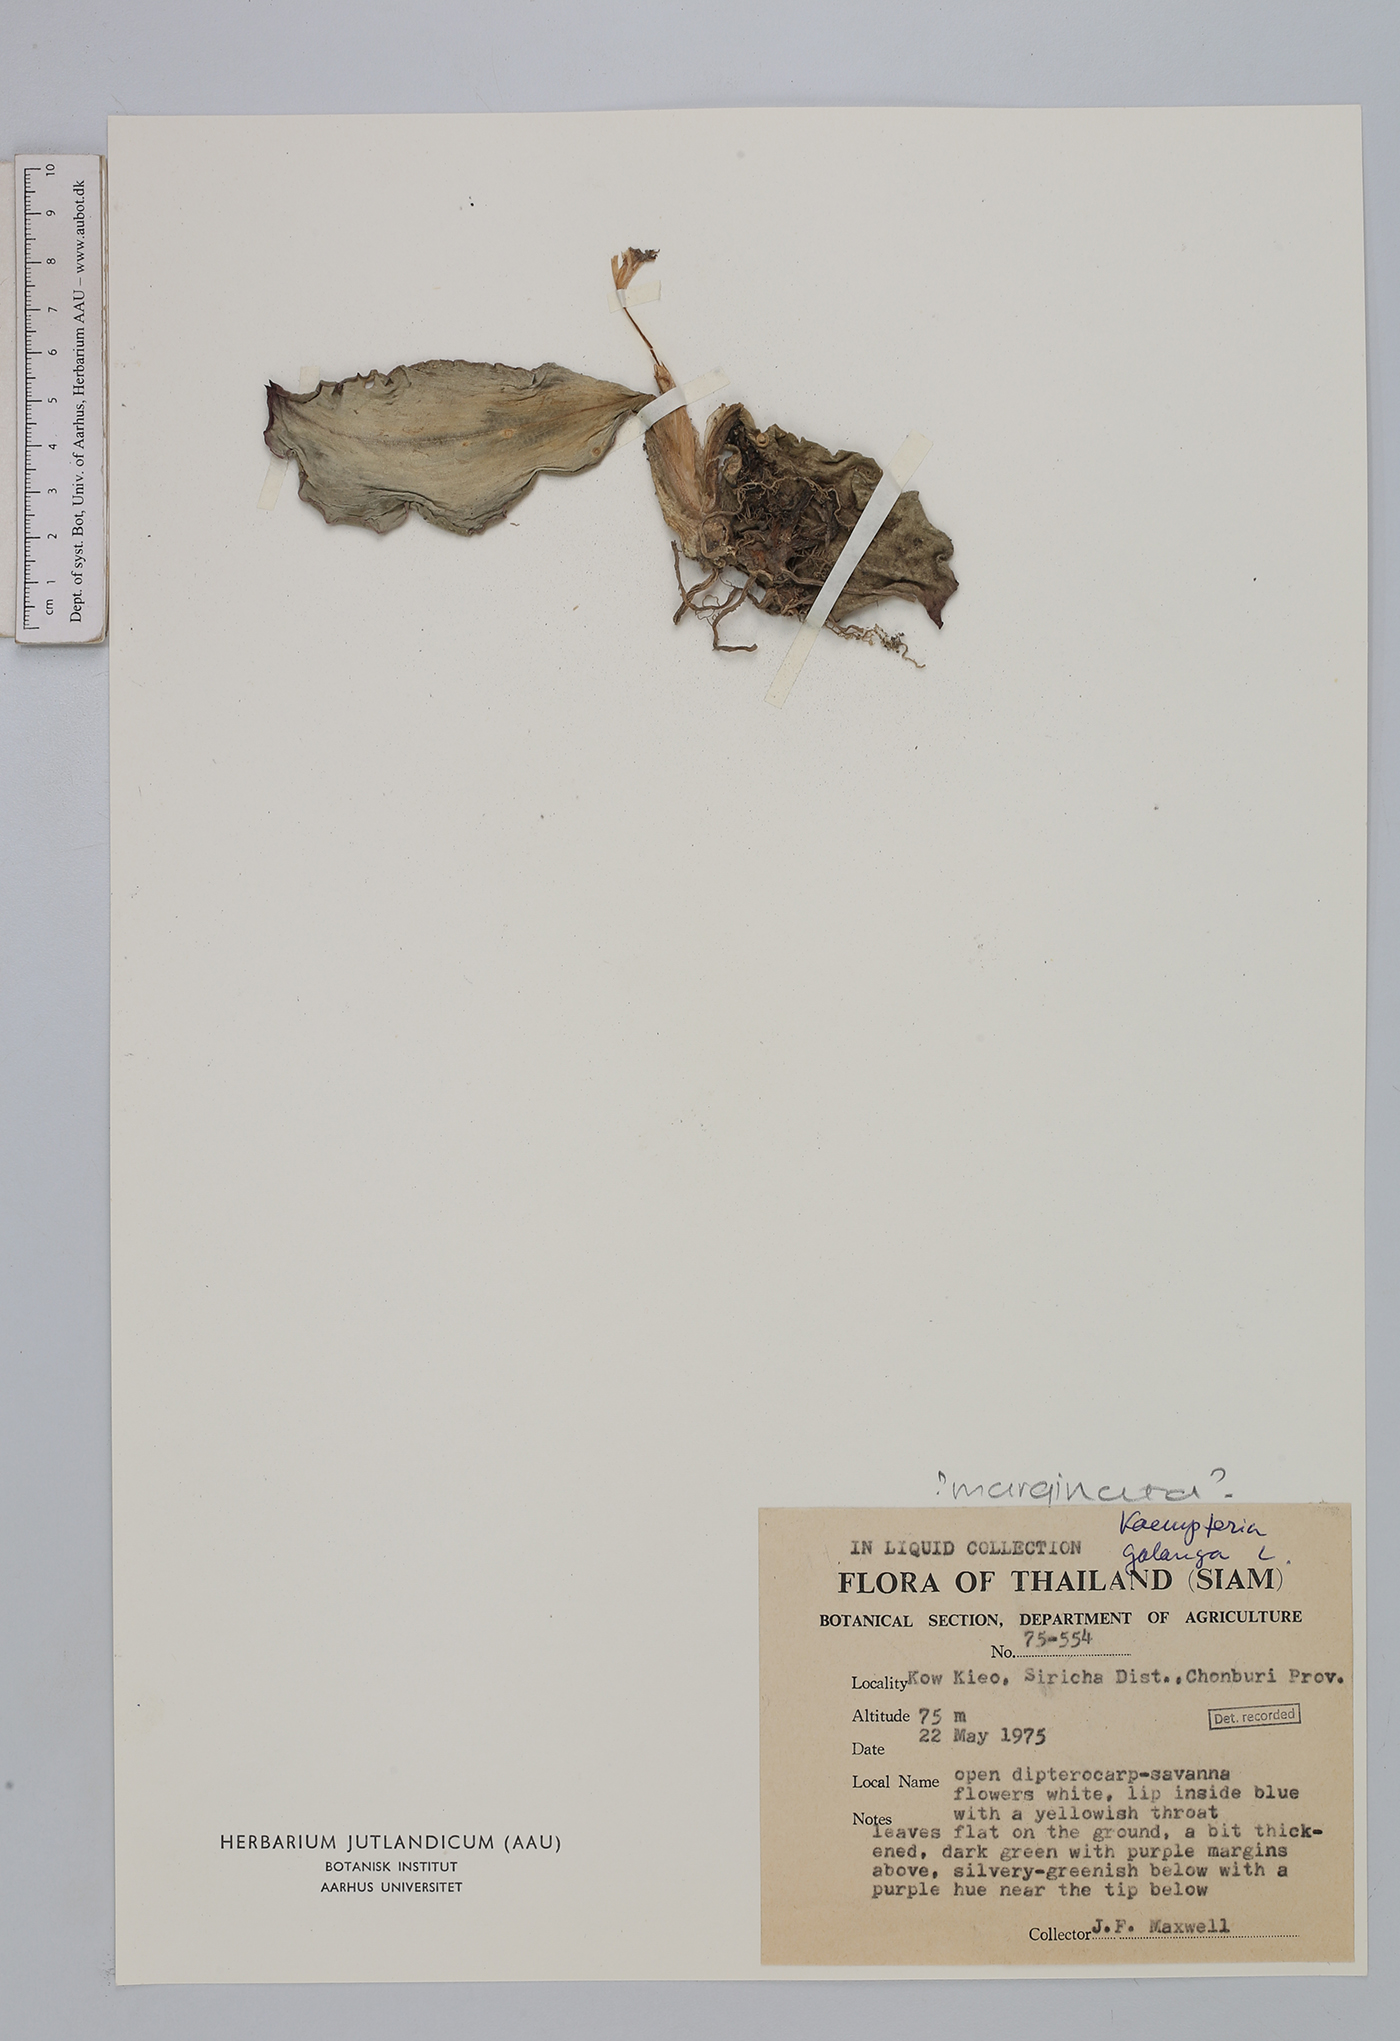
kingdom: Plantae
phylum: Tracheophyta
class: Liliopsida
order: Zingiberales
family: Zingiberaceae
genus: Kaempferia
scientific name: Kaempferia galanga
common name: Aromatic ginger
